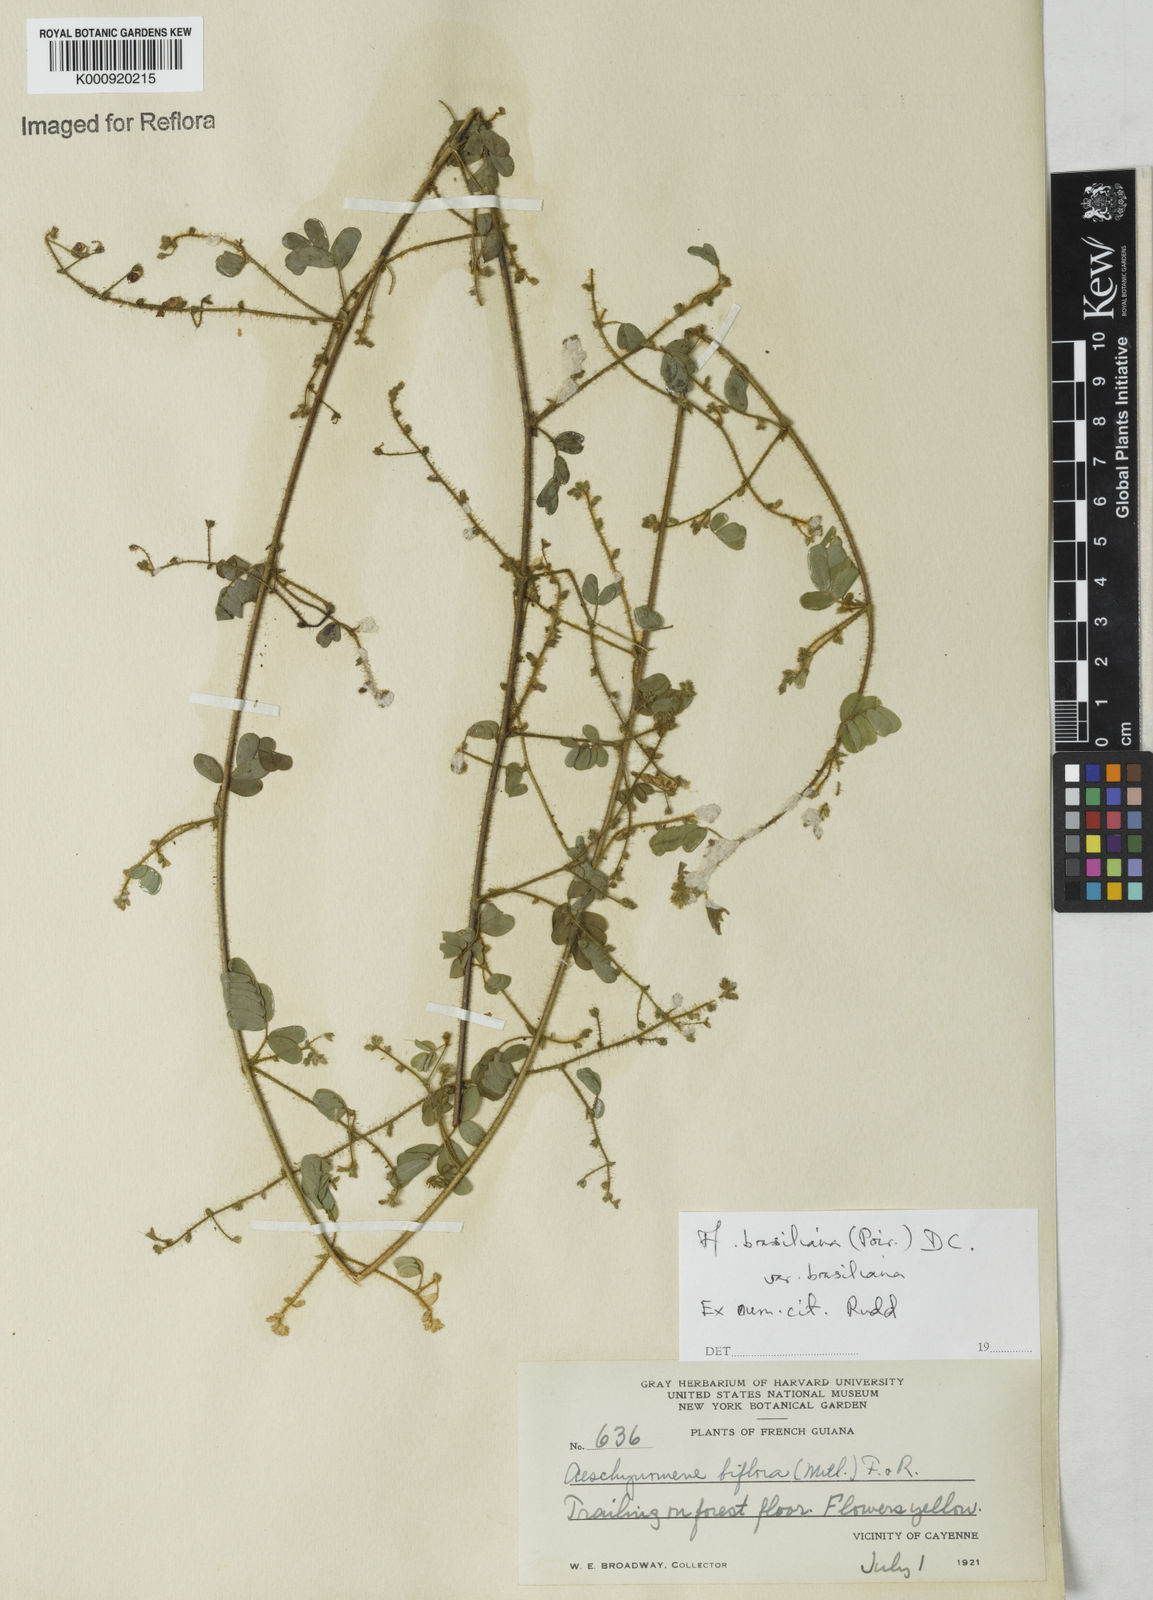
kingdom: Plantae
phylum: Tracheophyta
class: Magnoliopsida
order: Fabales
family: Fabaceae
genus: Ctenodon
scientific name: Ctenodon brasilianus
